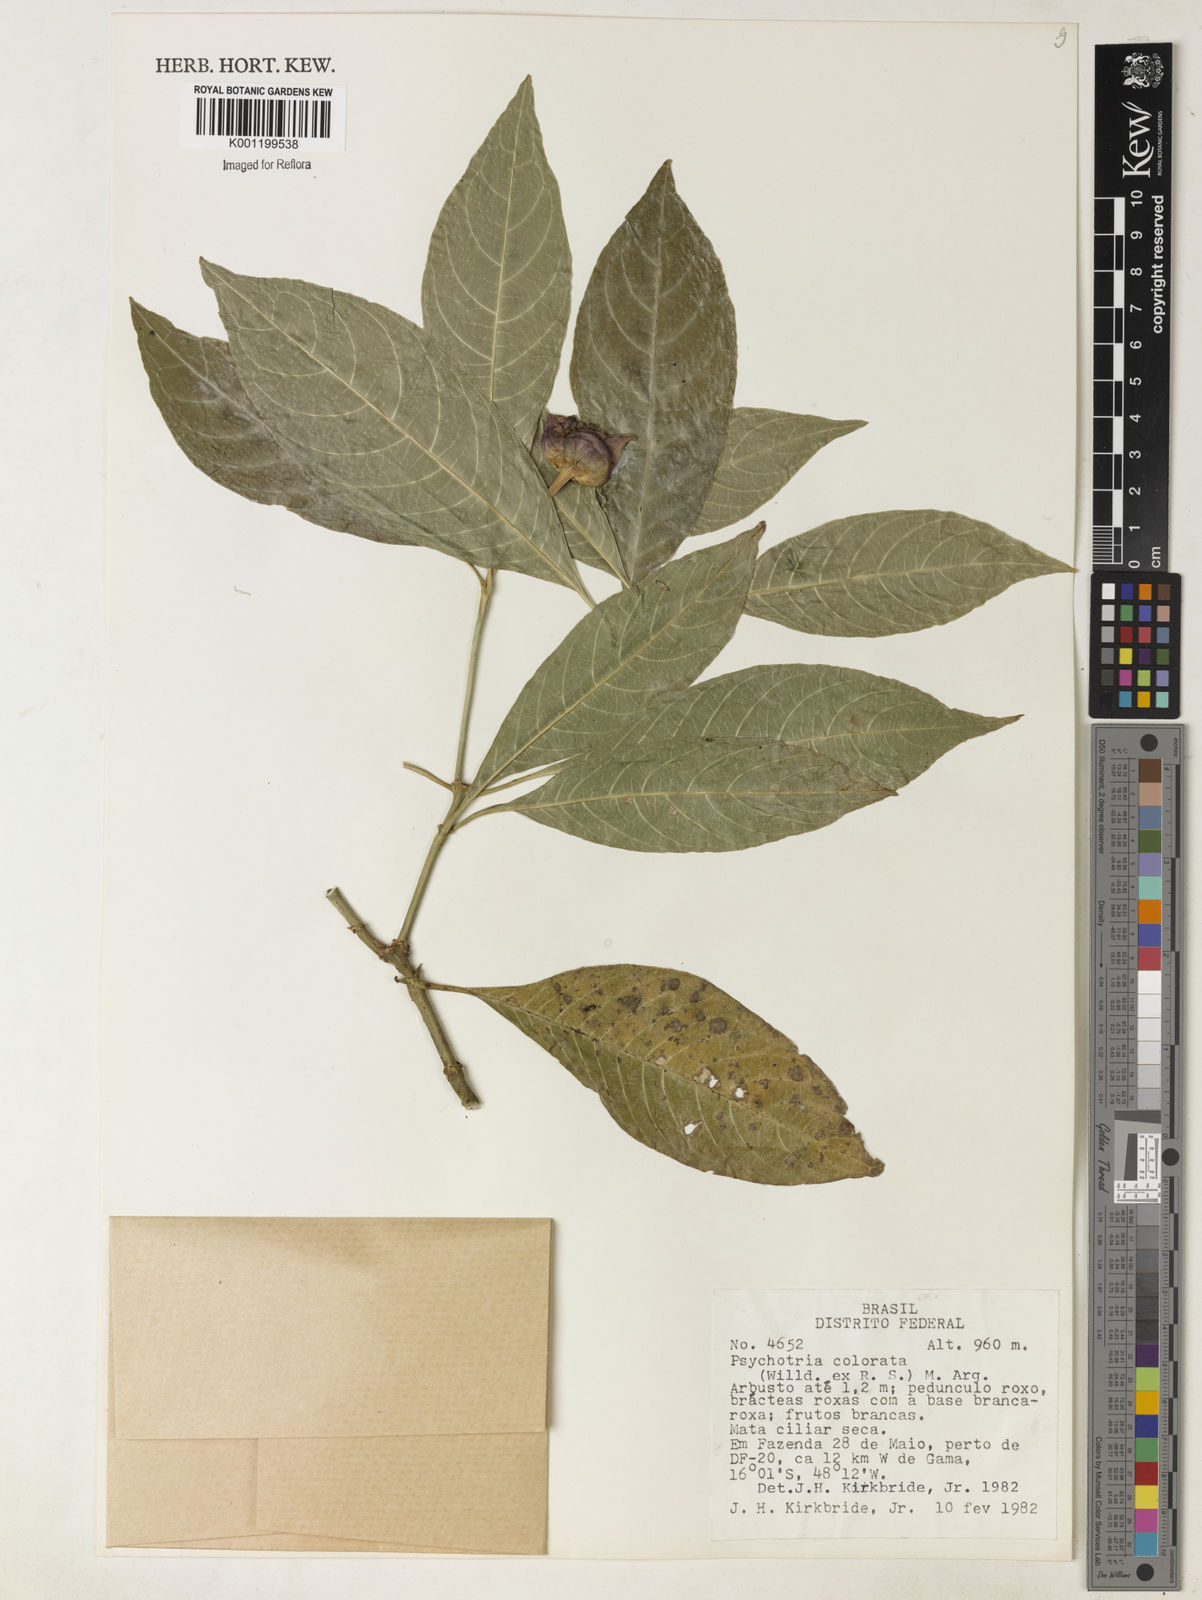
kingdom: Plantae
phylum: Tracheophyta
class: Magnoliopsida
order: Gentianales
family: Rubiaceae
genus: Psychotria
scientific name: Psychotria
